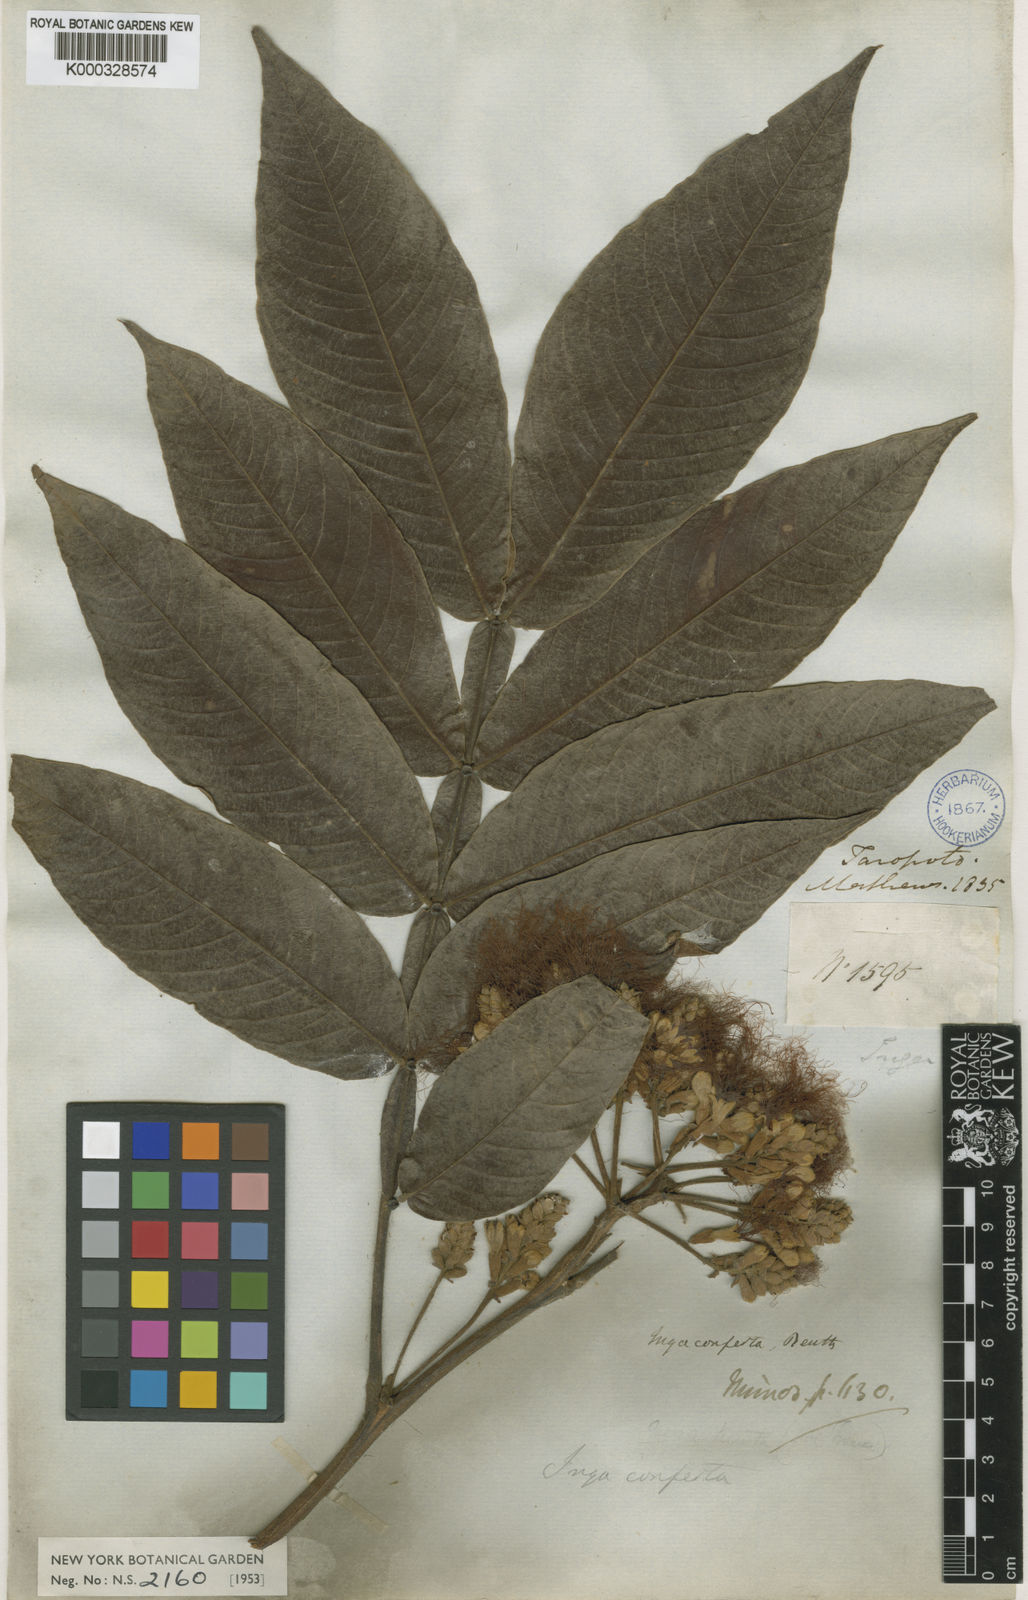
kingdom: Plantae
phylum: Tracheophyta
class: Magnoliopsida
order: Fabales
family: Fabaceae
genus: Inga
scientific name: Inga edulis
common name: Ice cream bean
